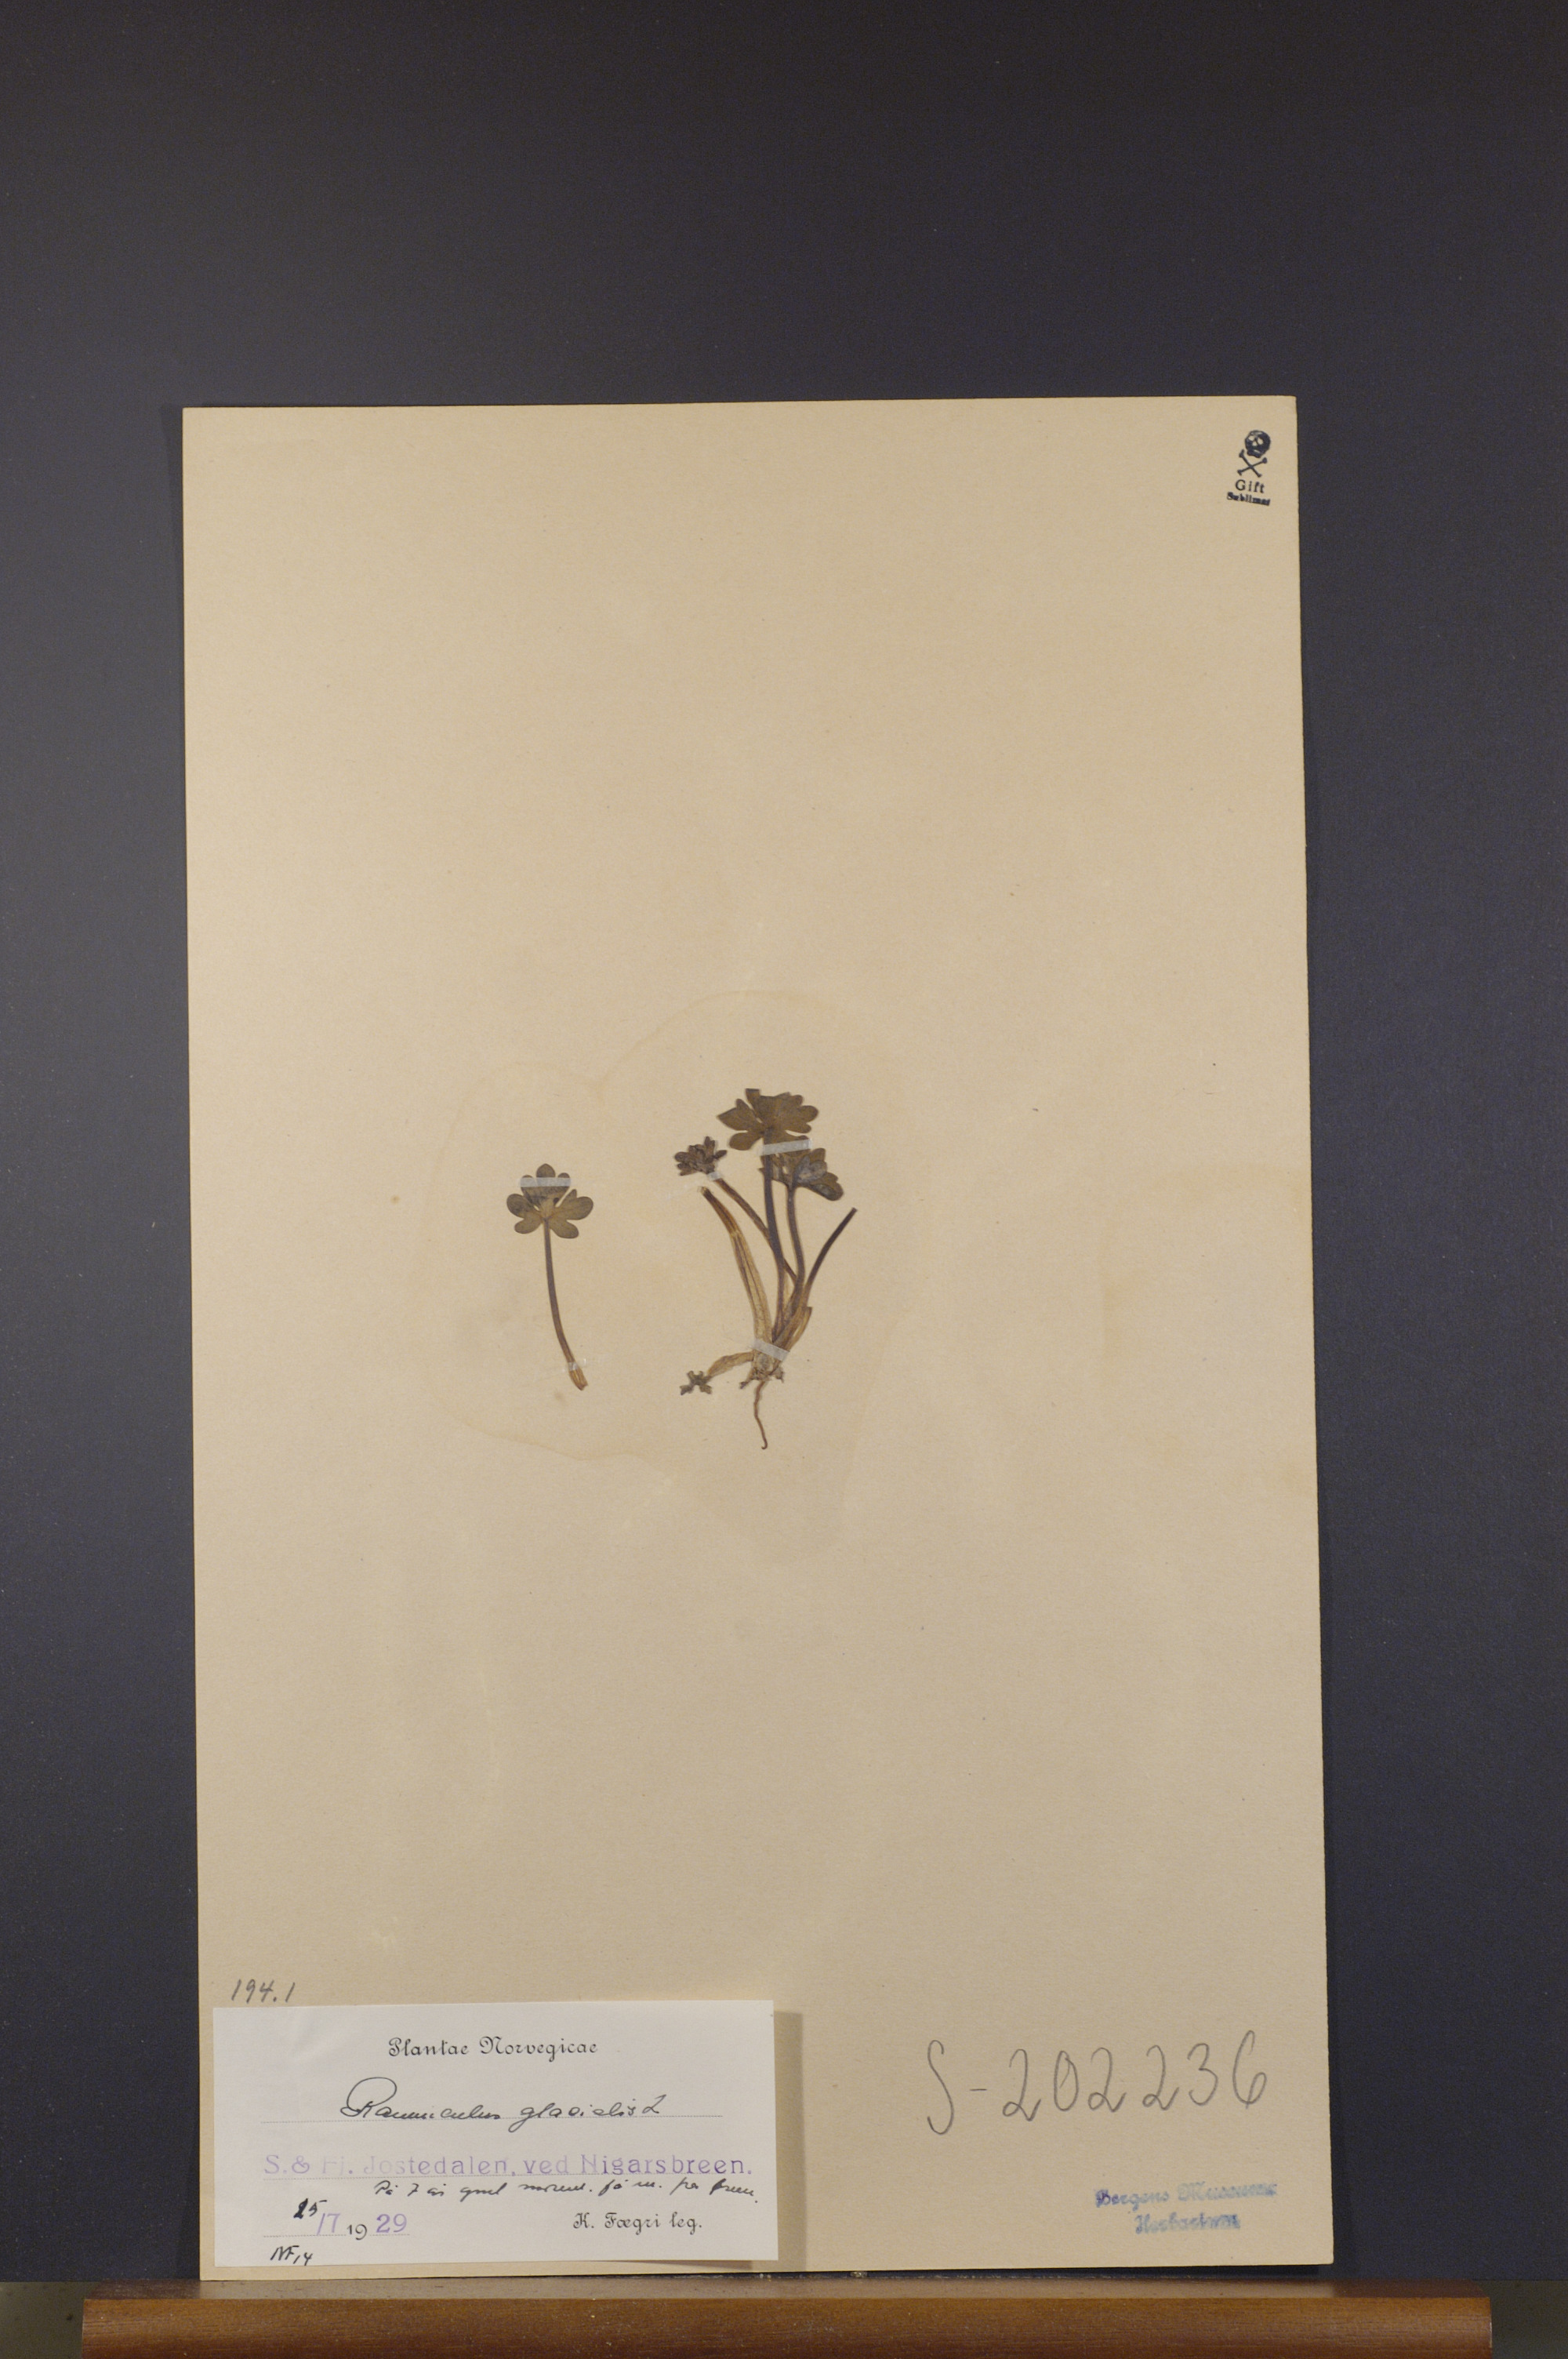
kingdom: Plantae
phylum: Tracheophyta
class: Magnoliopsida
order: Ranunculales
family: Ranunculaceae
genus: Ranunculus
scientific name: Ranunculus glacialis
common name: Glacier buttercup
